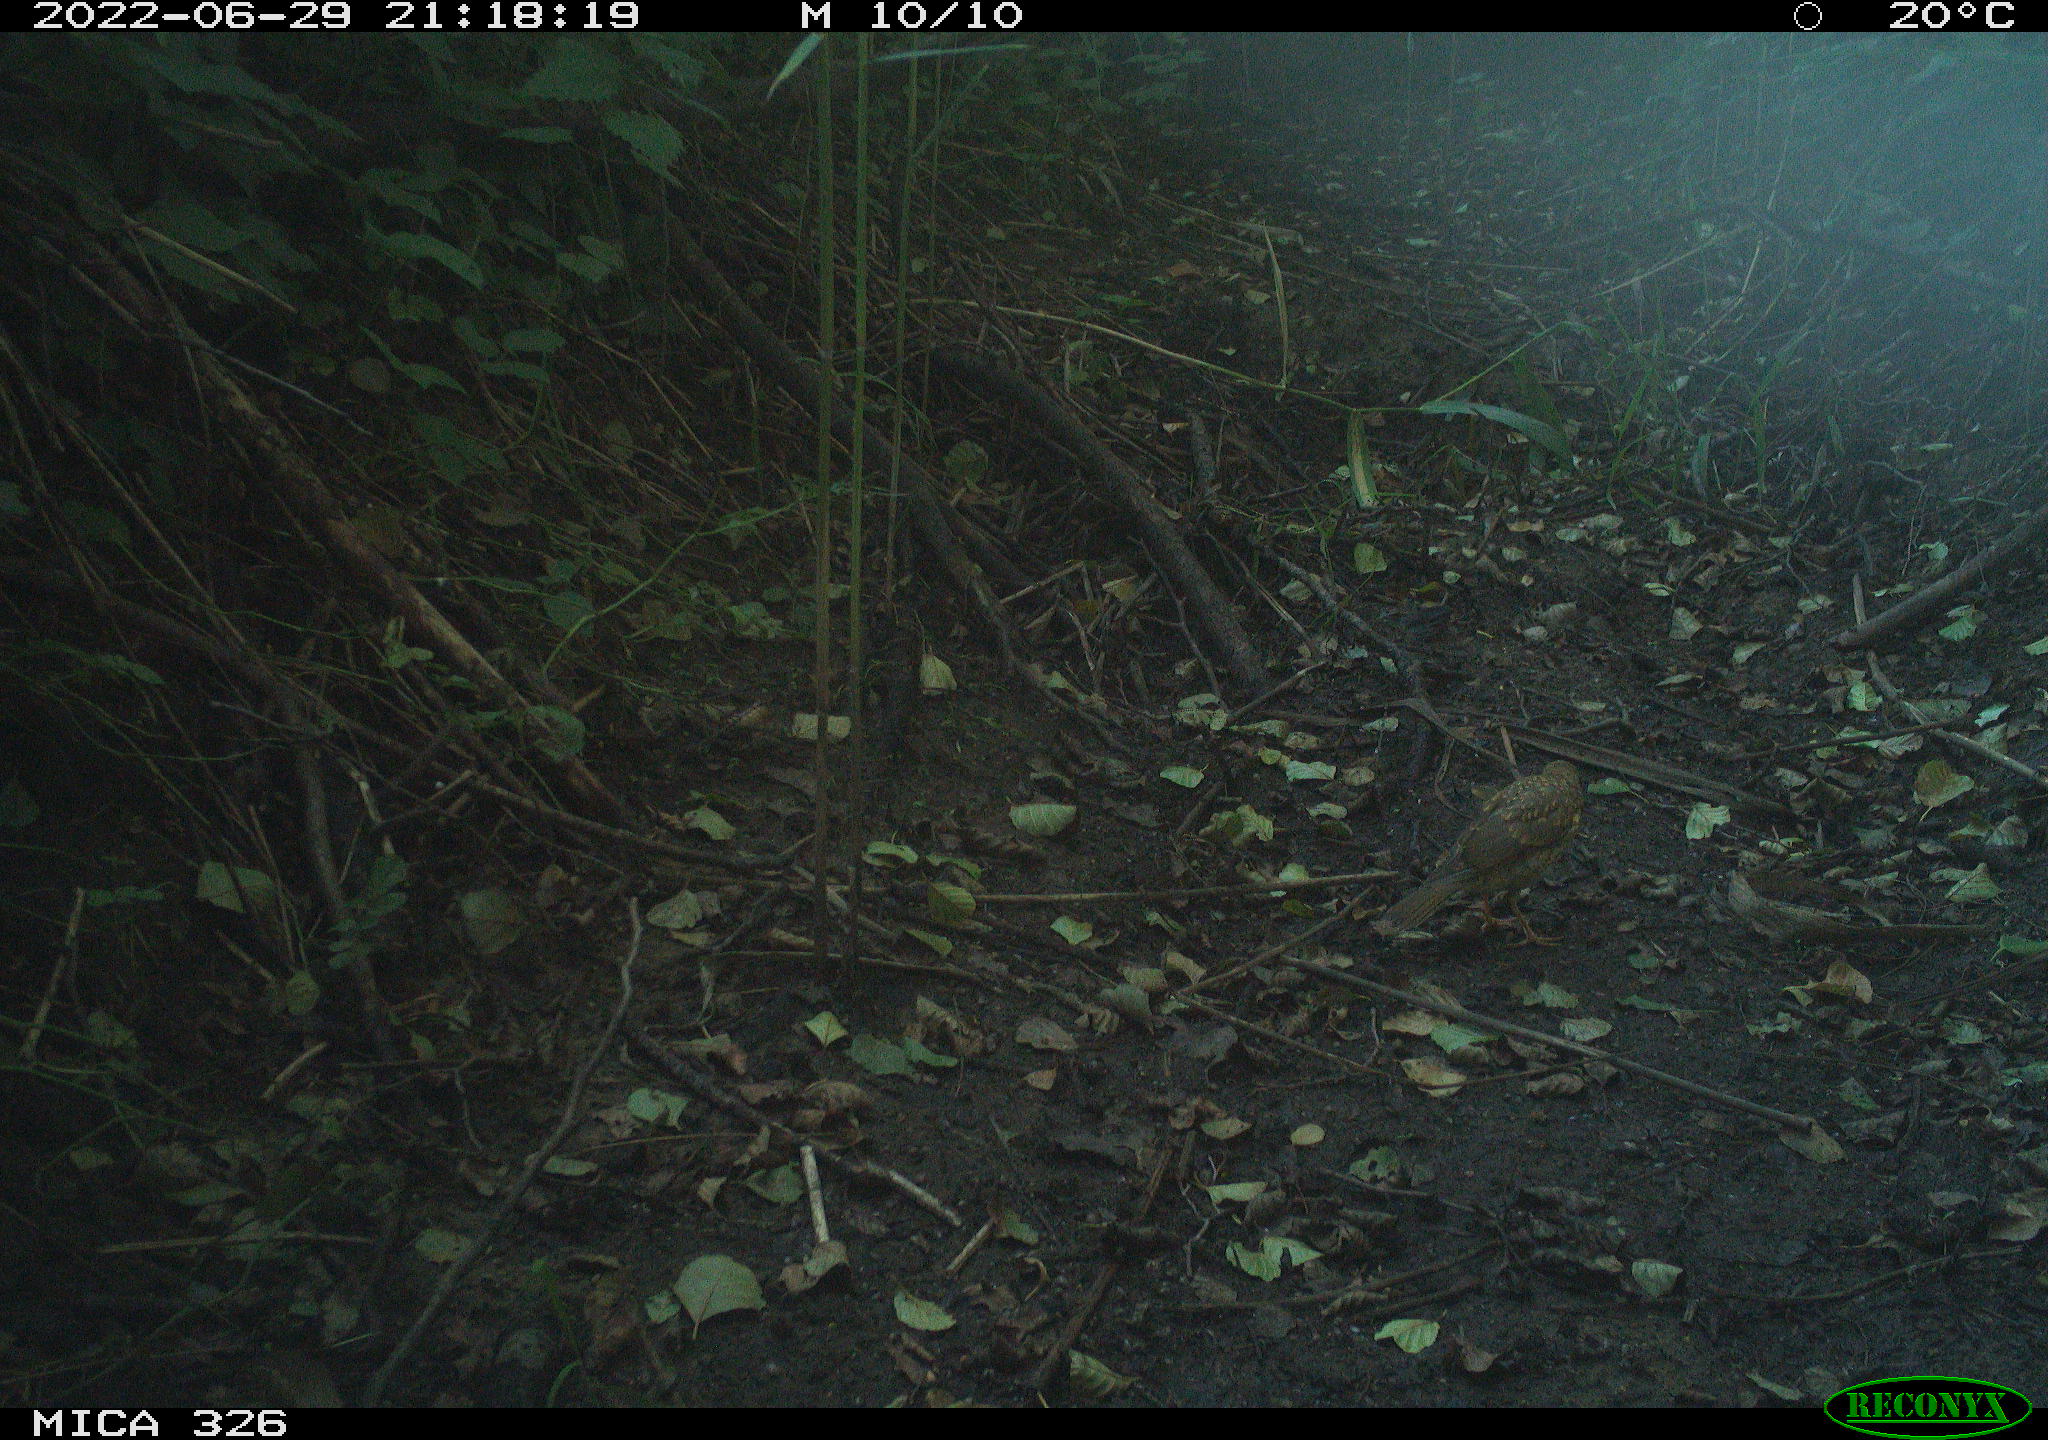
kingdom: Animalia
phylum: Chordata
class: Aves
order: Passeriformes
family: Turdidae
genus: Turdus
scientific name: Turdus merula
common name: Common blackbird
